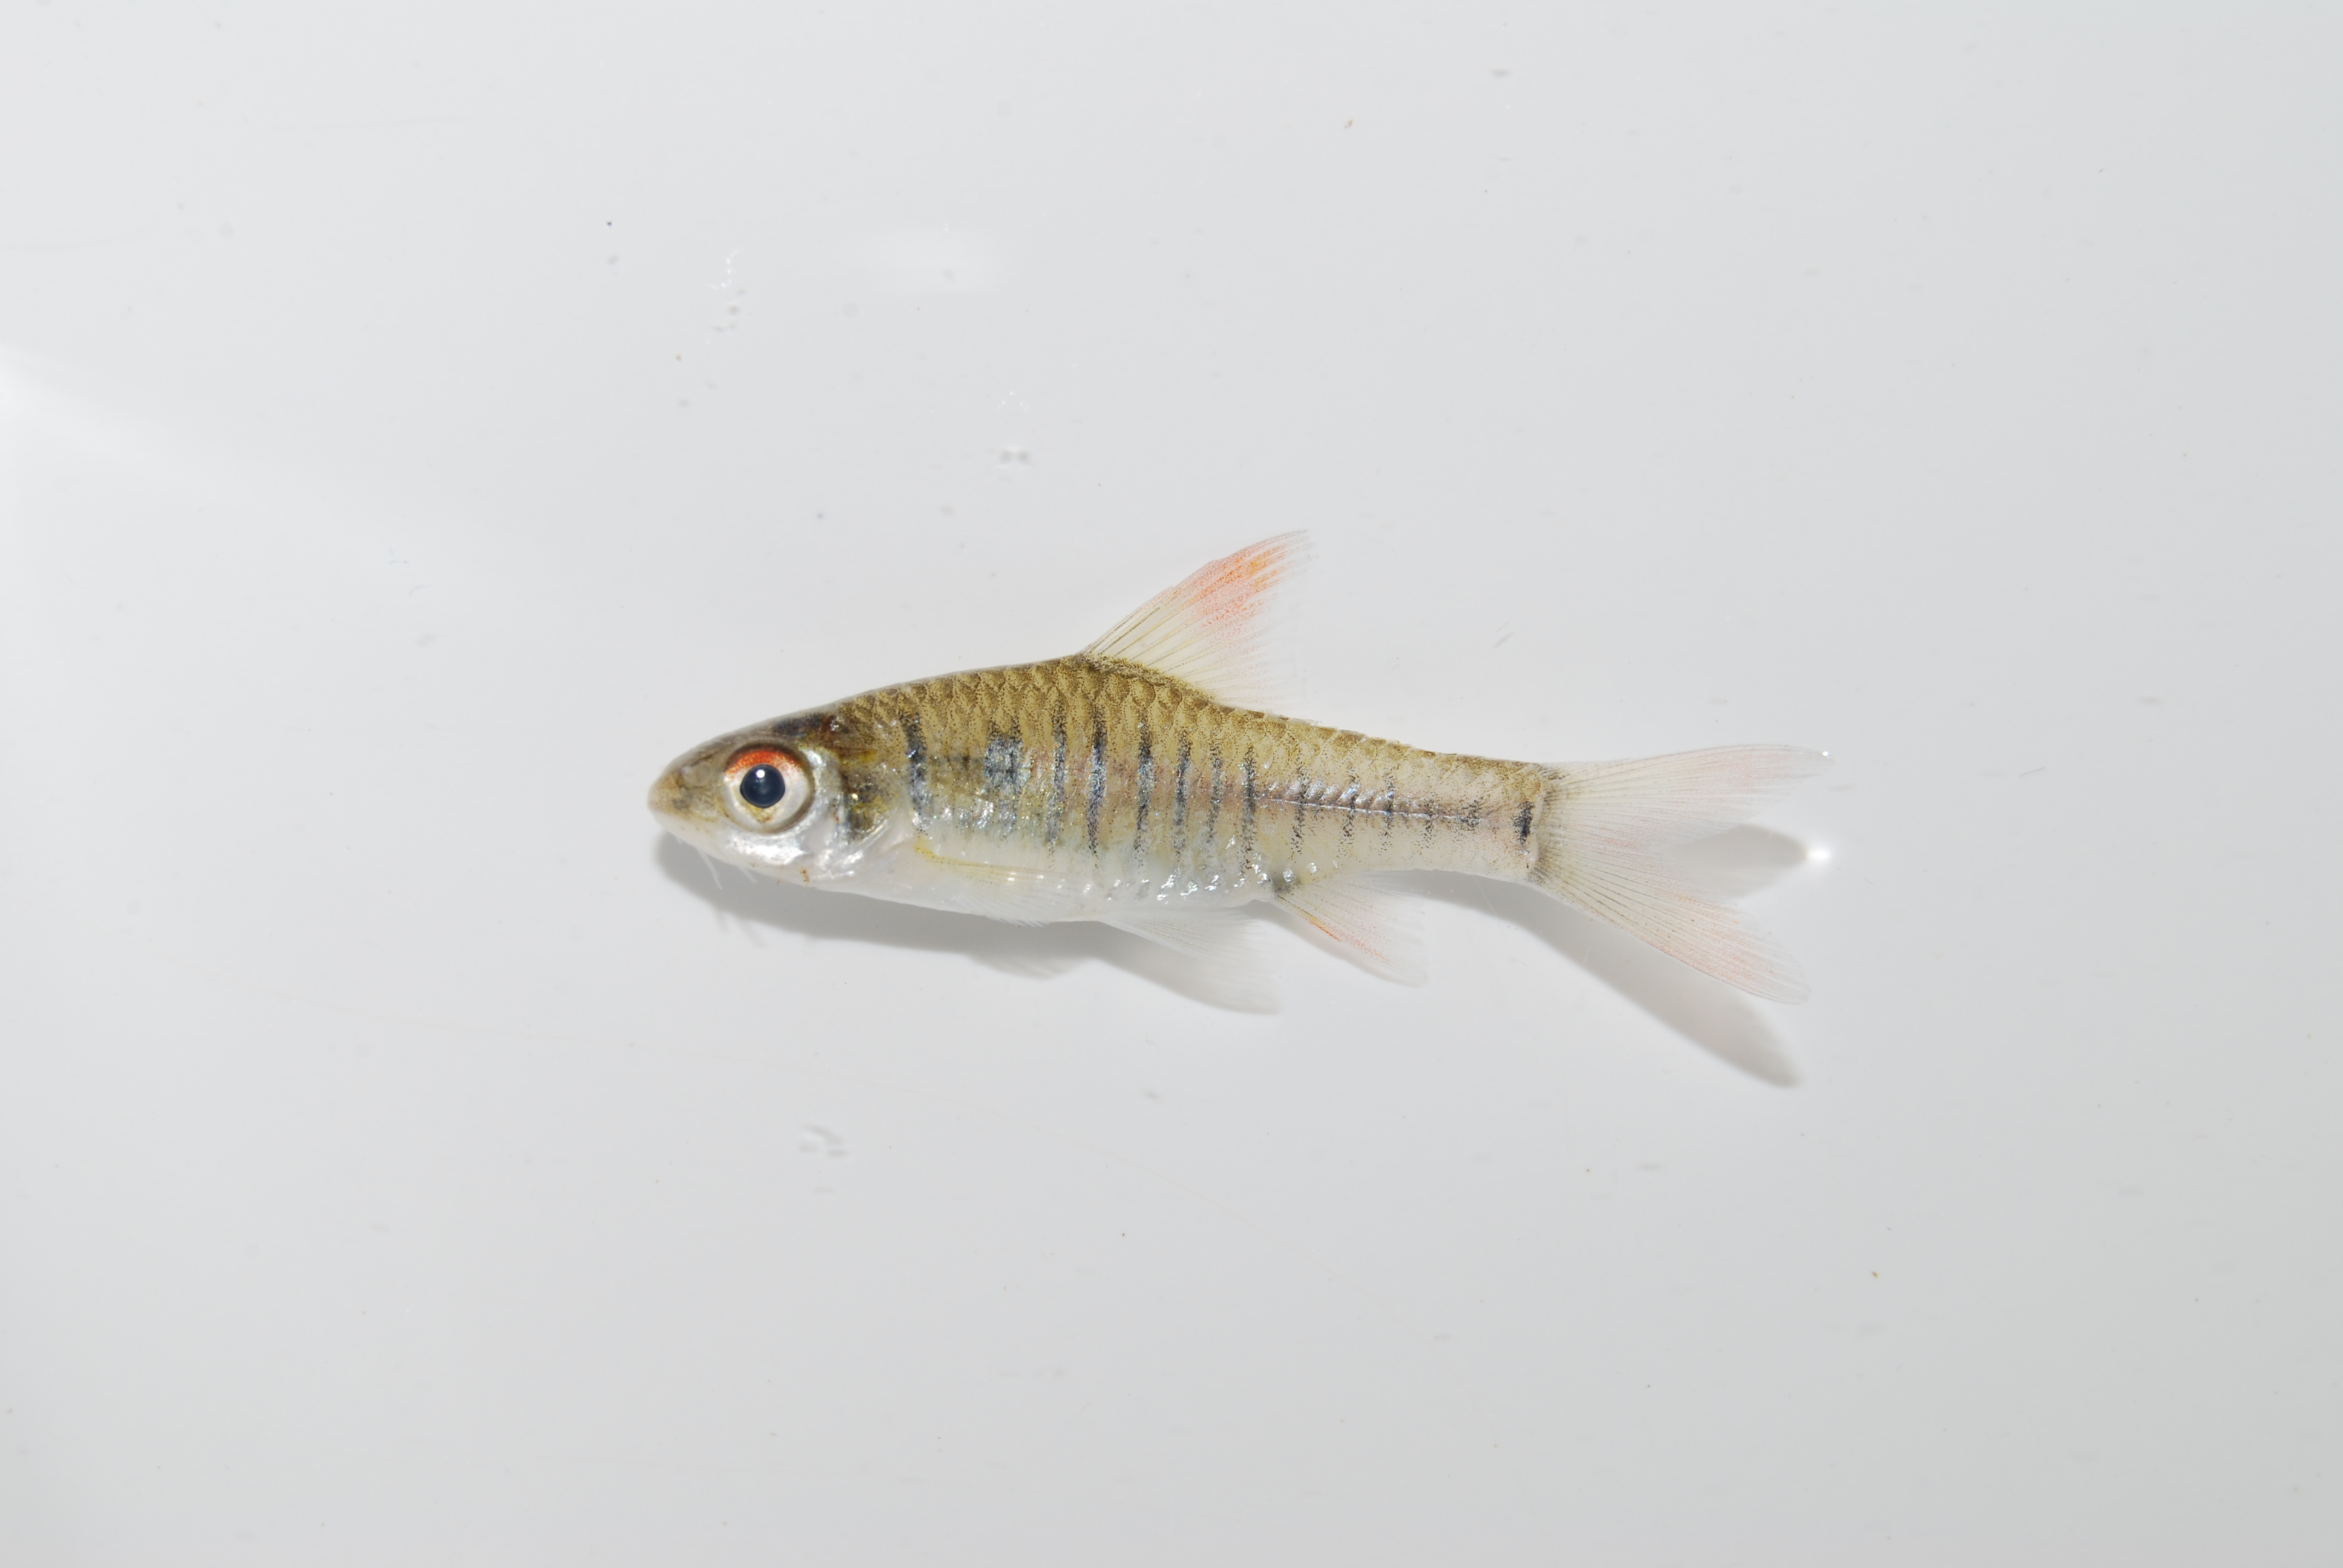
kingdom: Animalia
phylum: Chordata
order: Cypriniformes
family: Cyprinidae
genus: Enteromius
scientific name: Enteromius fasciolatus
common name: Red barb
